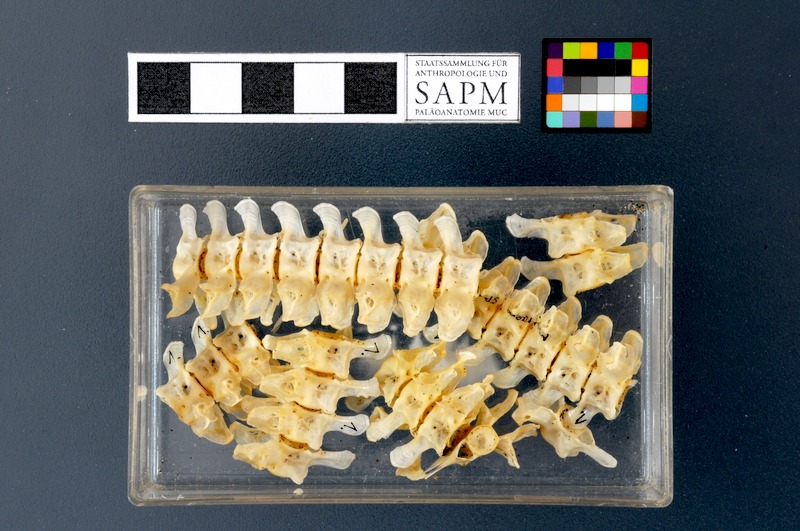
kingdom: Animalia
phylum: Chordata
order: Anguilliformes
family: Muraenidae
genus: Muraena
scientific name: Muraena
